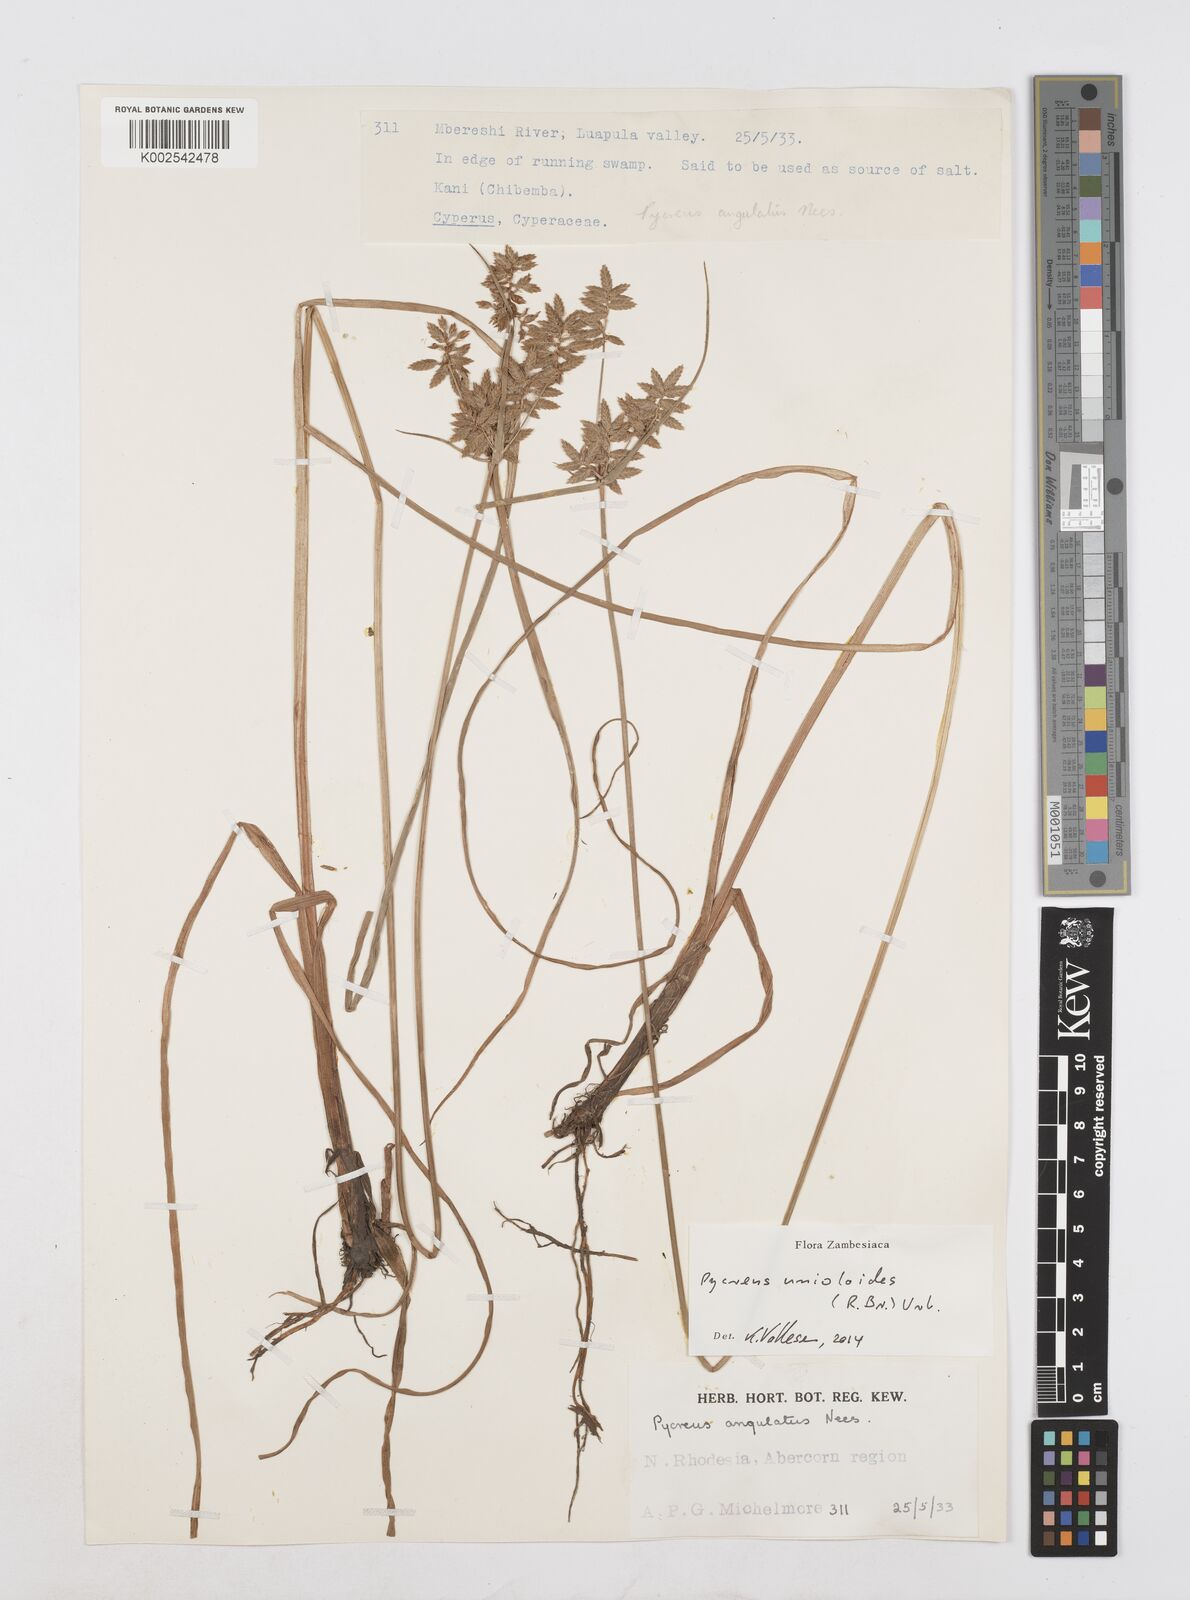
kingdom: Plantae
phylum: Tracheophyta
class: Liliopsida
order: Poales
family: Cyperaceae
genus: Cyperus
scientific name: Cyperus unioloides
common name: Uniola flatsedge
